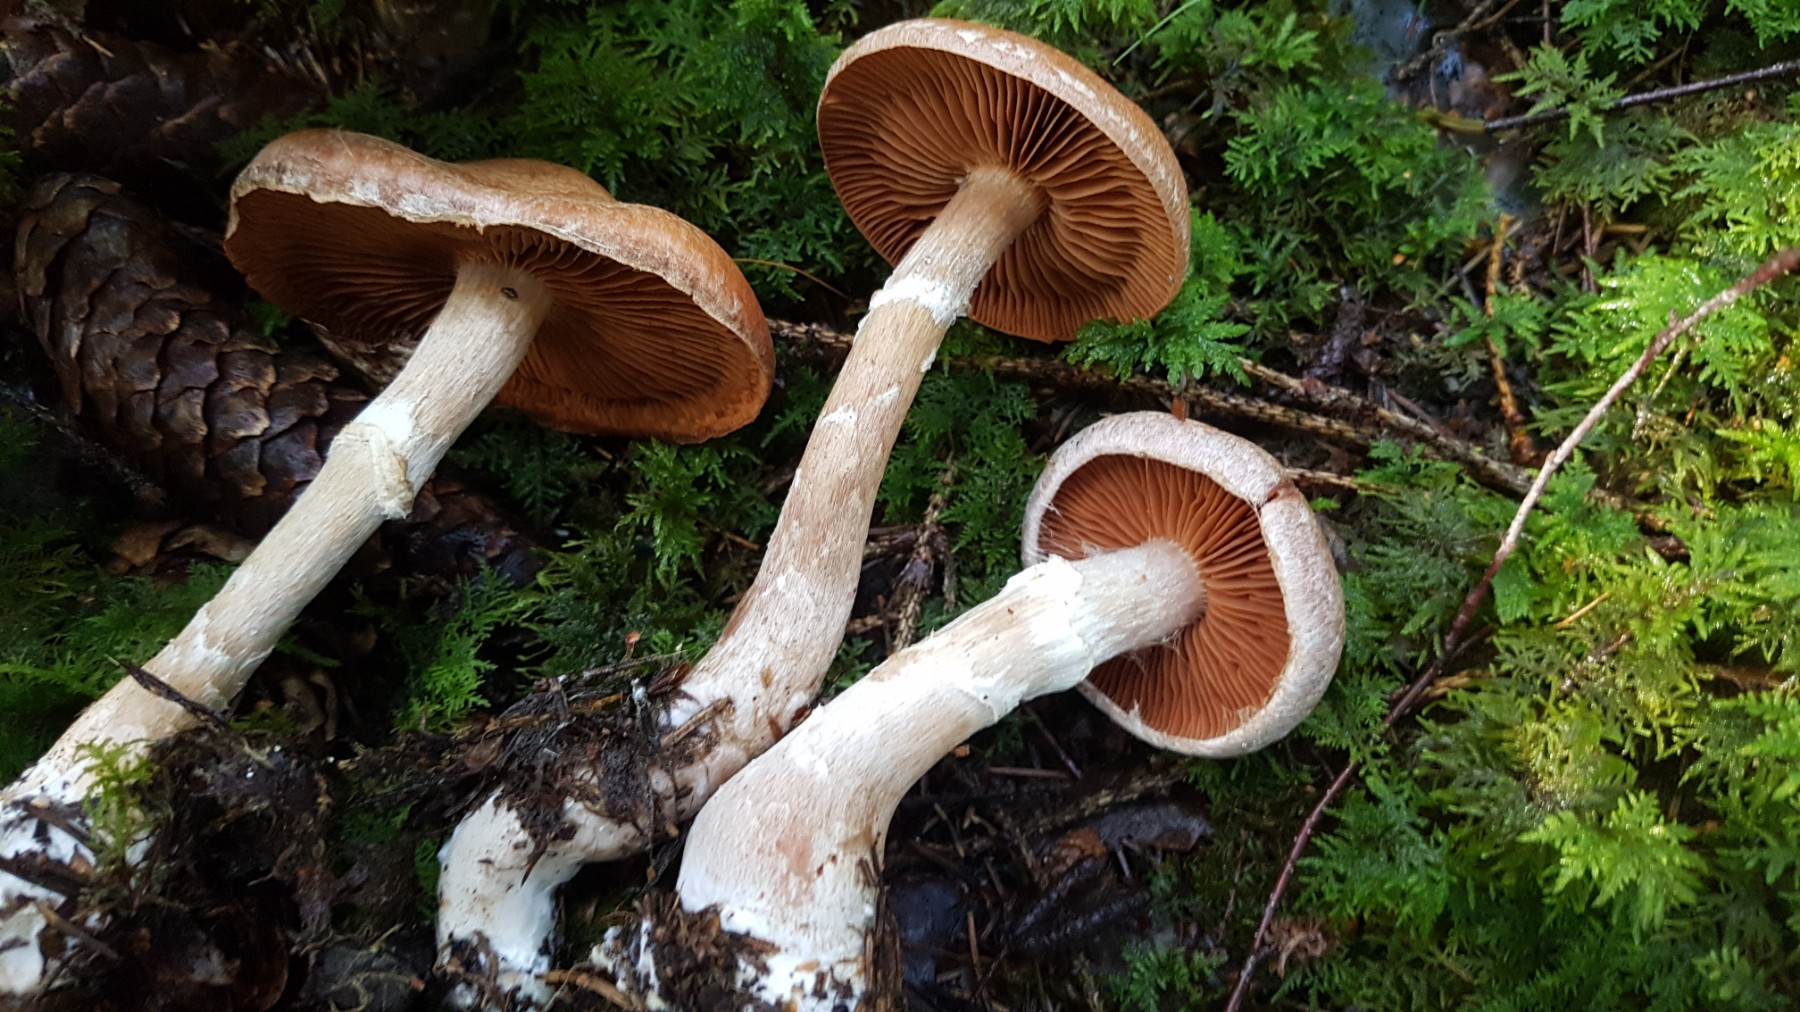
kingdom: Fungi
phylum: Basidiomycota
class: Agaricomycetes
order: Agaricales
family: Cortinariaceae
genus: Cortinarius
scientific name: Cortinarius laniger
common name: teglbladet slørhat
